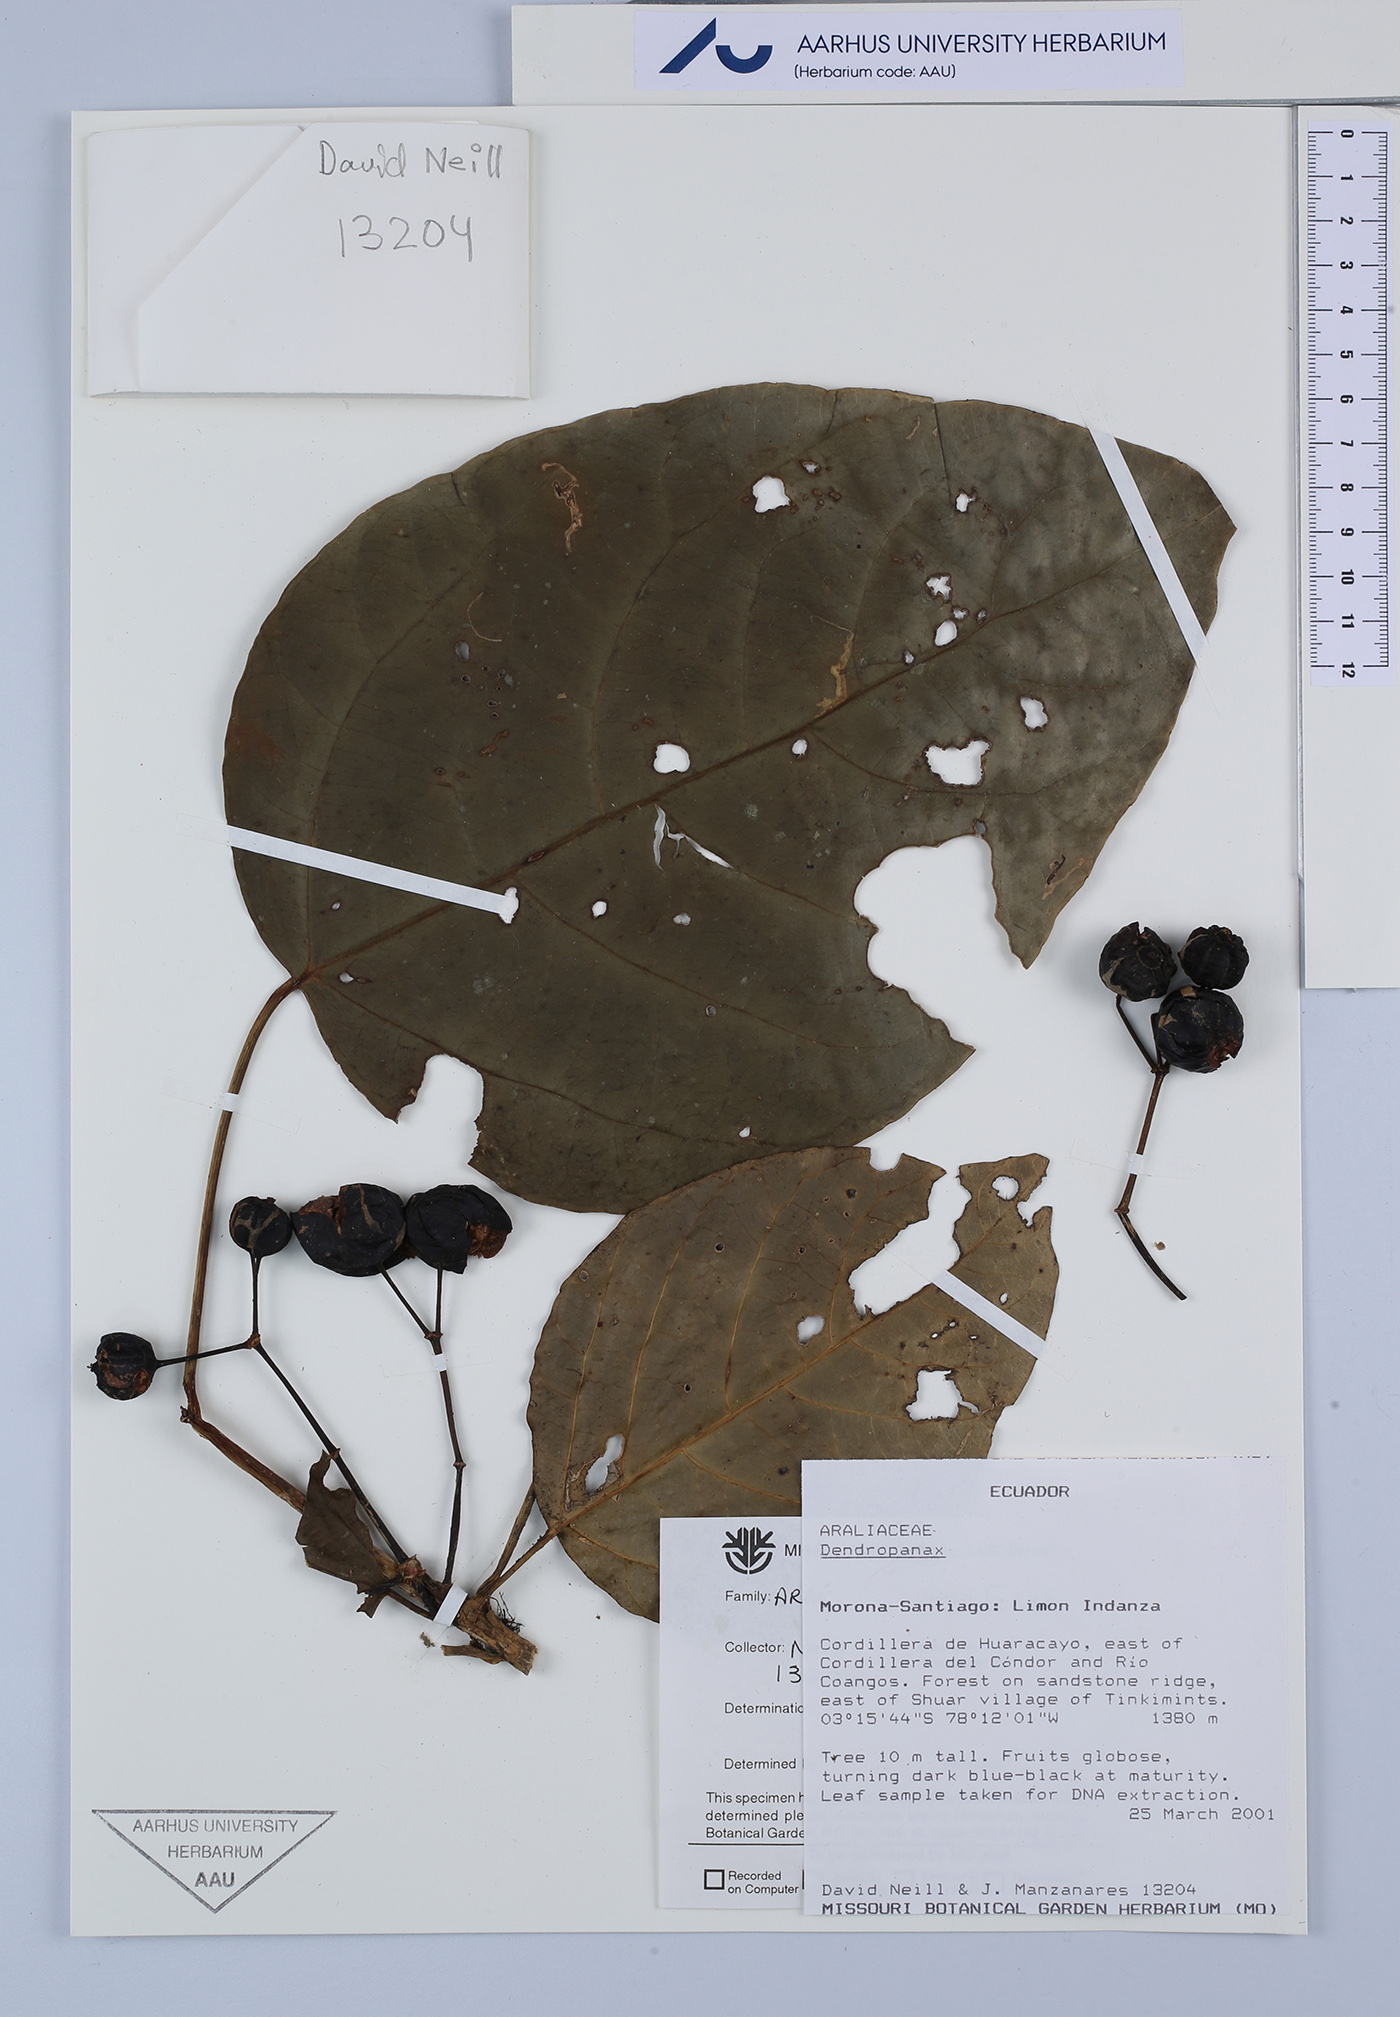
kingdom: Plantae
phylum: Tracheophyta
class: Magnoliopsida
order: Apiales
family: Araliaceae
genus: Dendropanax
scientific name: Dendropanax
